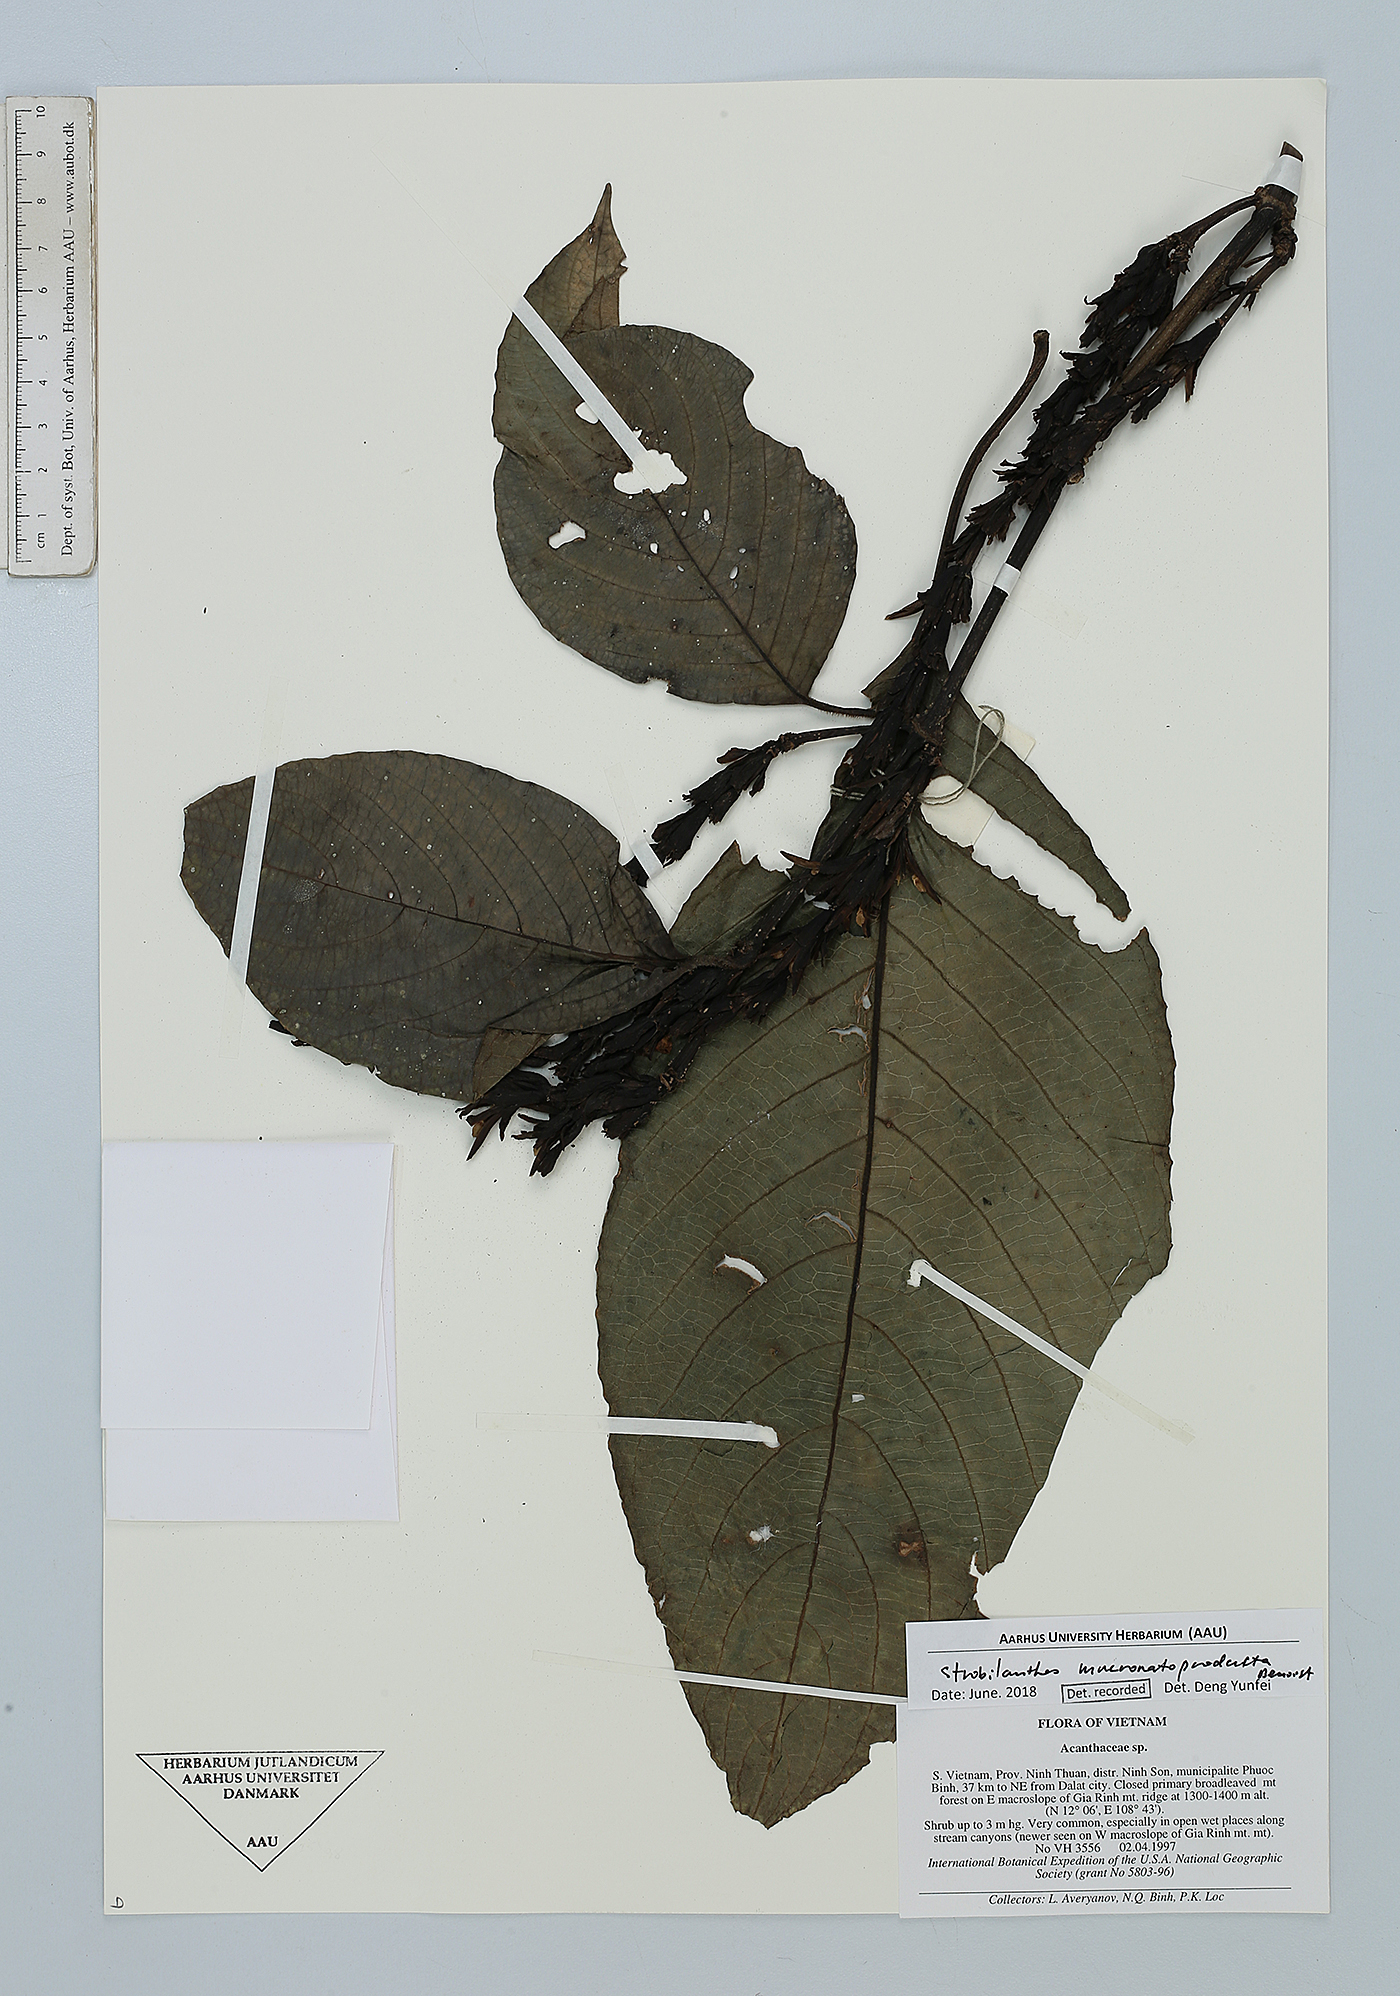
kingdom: Plantae
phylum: Tracheophyta
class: Magnoliopsida
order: Lamiales
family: Acanthaceae
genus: Strobilanthes
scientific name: Strobilanthes mucronatoproducta
